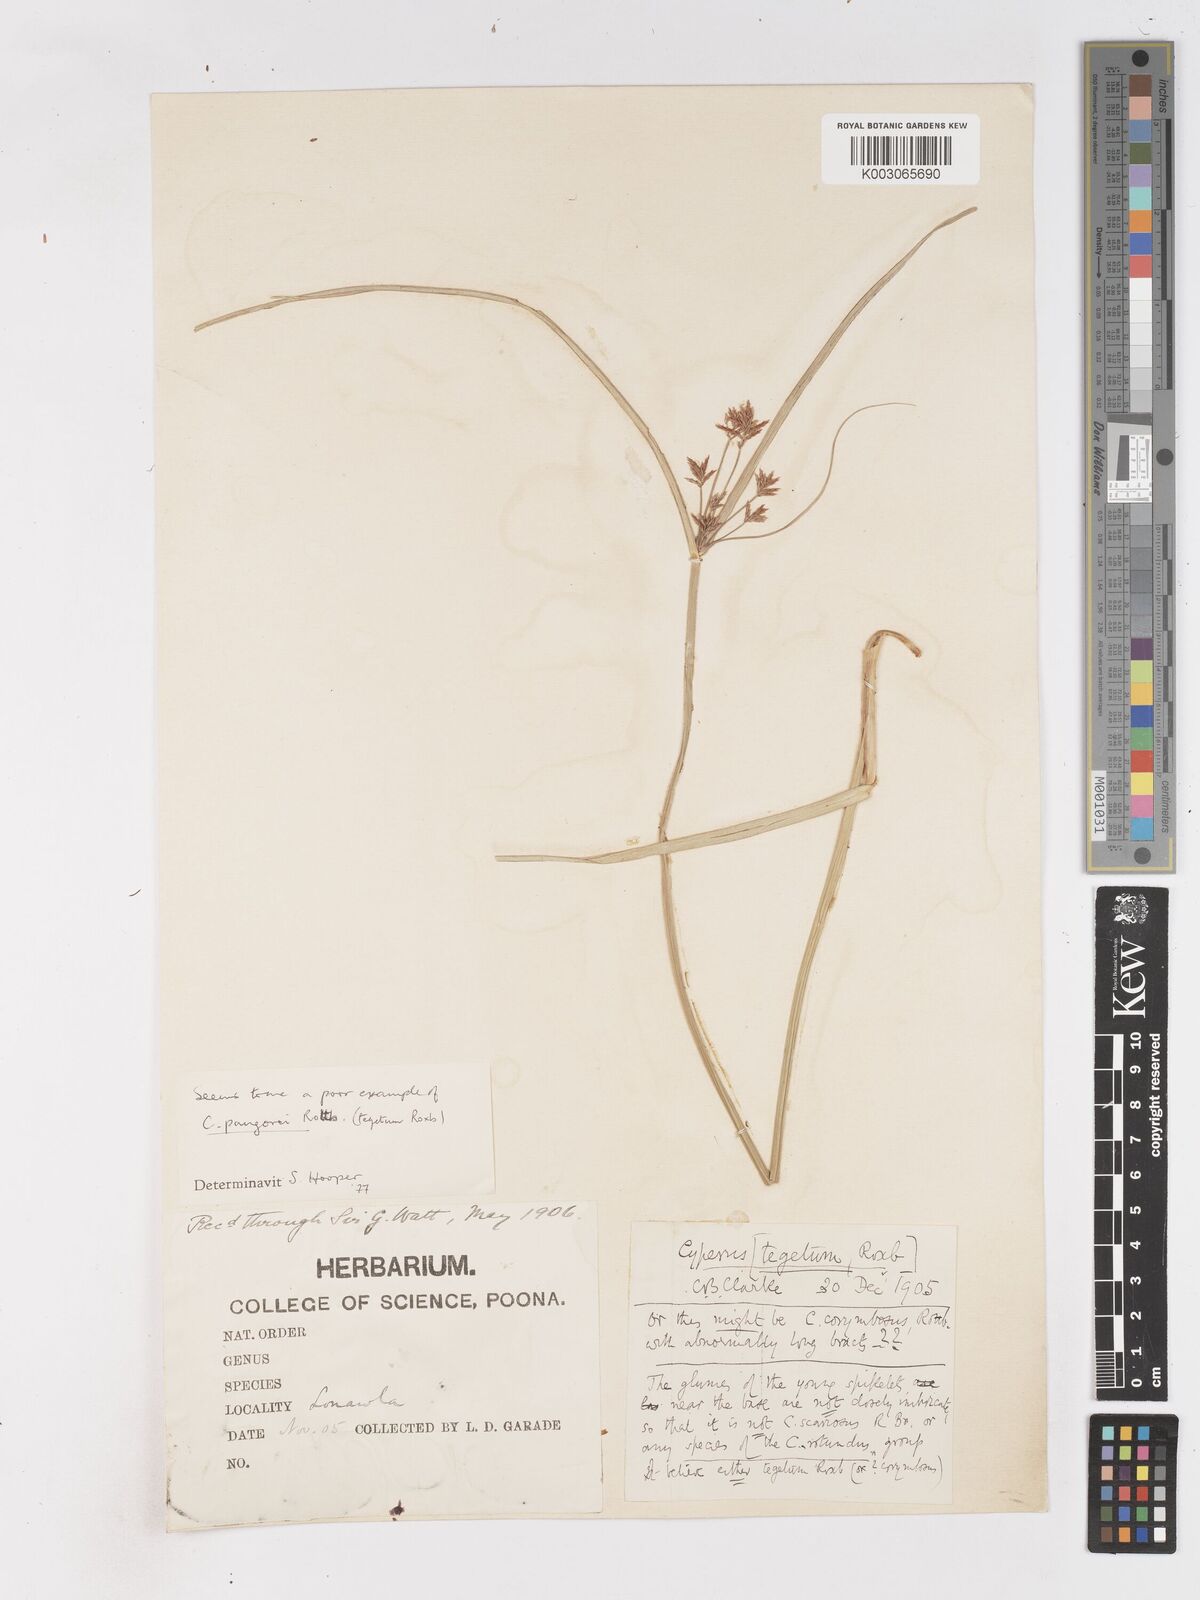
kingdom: Plantae
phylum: Tracheophyta
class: Liliopsida
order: Poales
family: Cyperaceae
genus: Cyperus
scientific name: Cyperus pangorei
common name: Mat sedge
